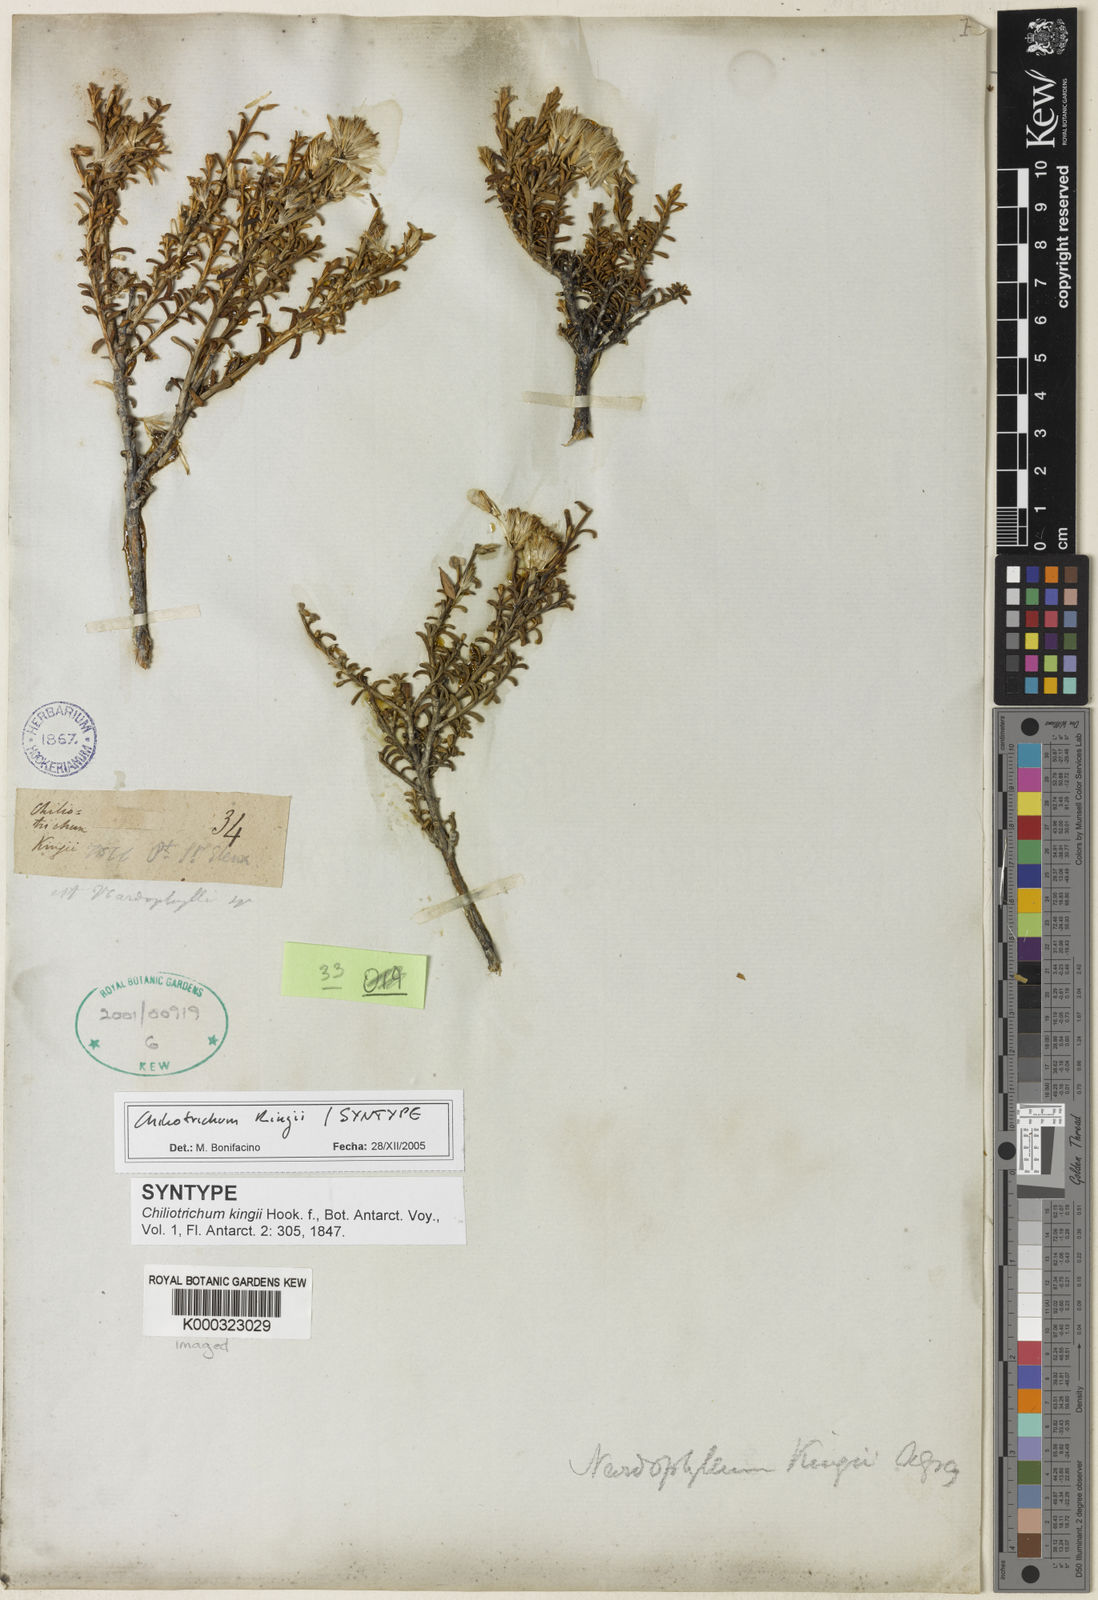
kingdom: Plantae
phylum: Tracheophyta
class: Magnoliopsida
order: Asterales
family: Asteraceae
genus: Nardophyllum
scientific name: Nardophyllum bryoides
